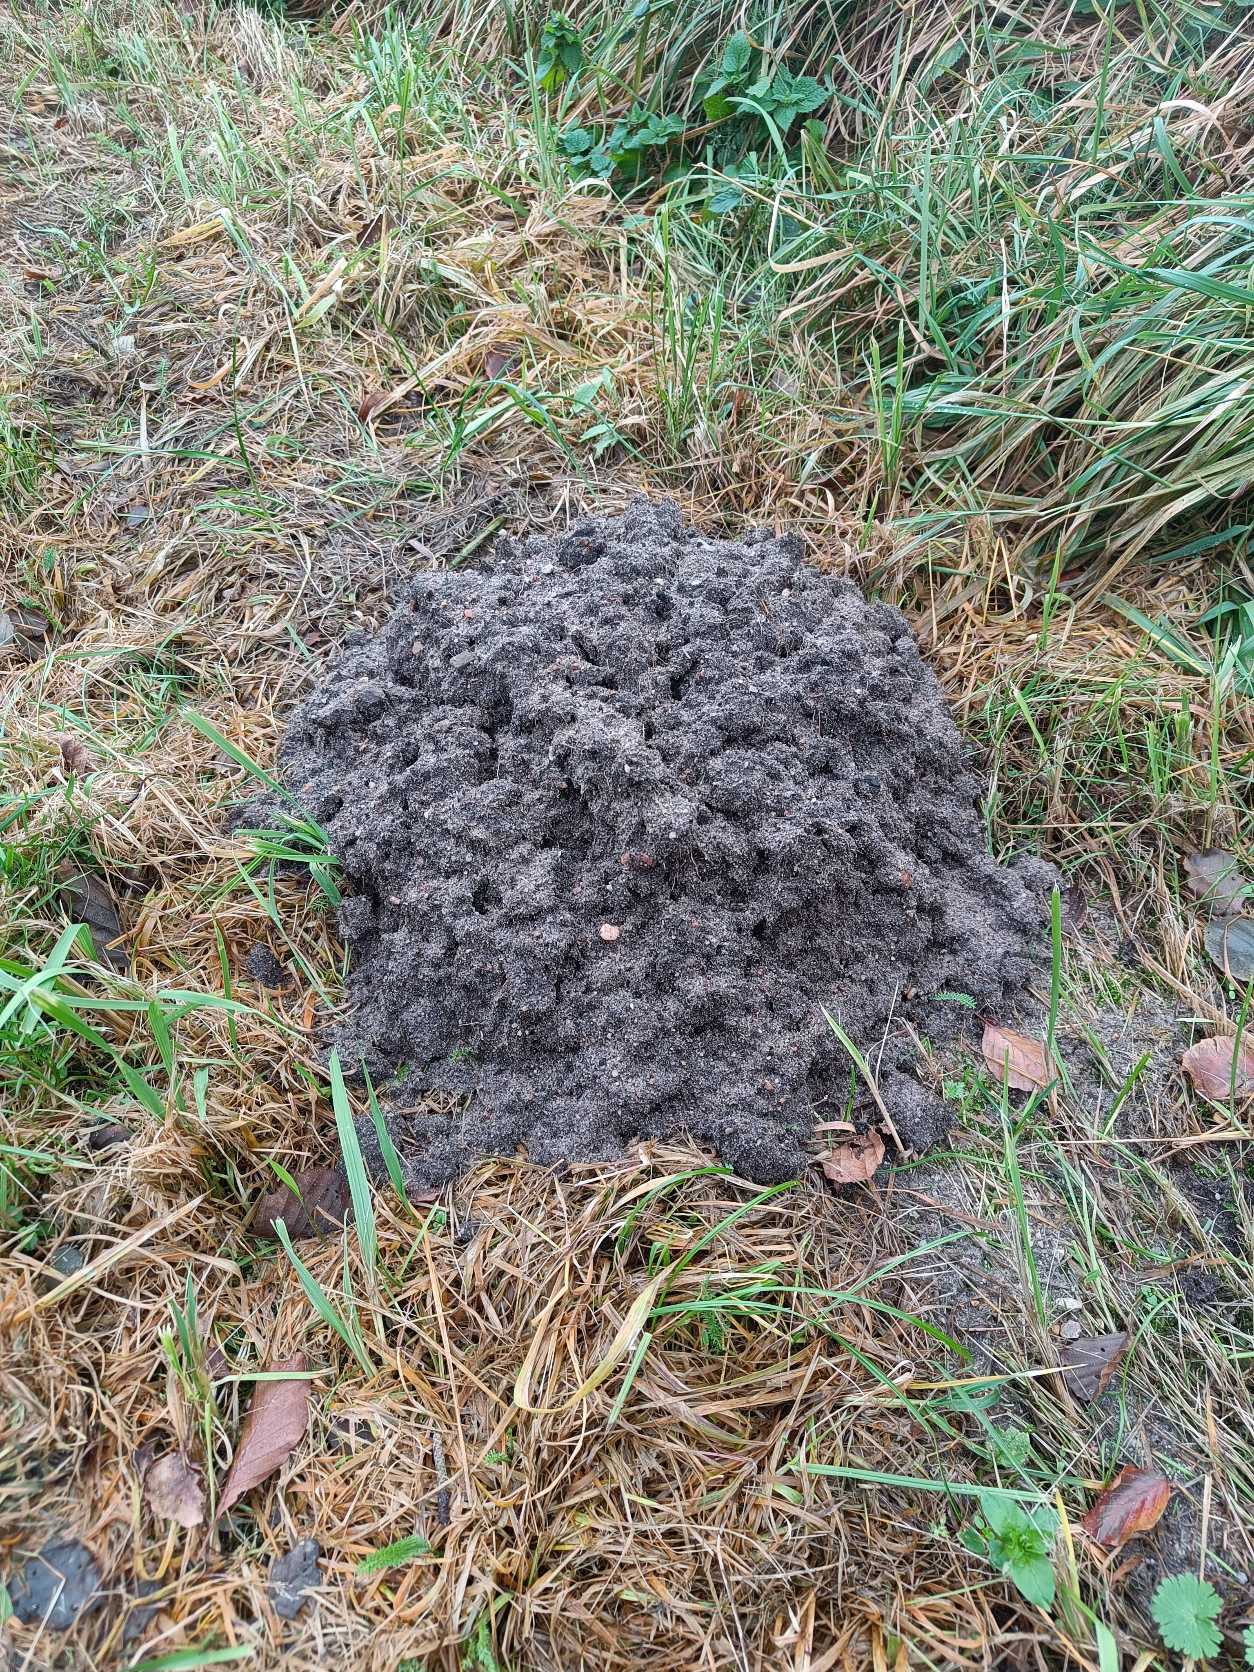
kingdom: Animalia
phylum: Chordata
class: Mammalia
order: Soricomorpha
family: Talpidae
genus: Talpa
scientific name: Talpa europaea
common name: Muldvarp
